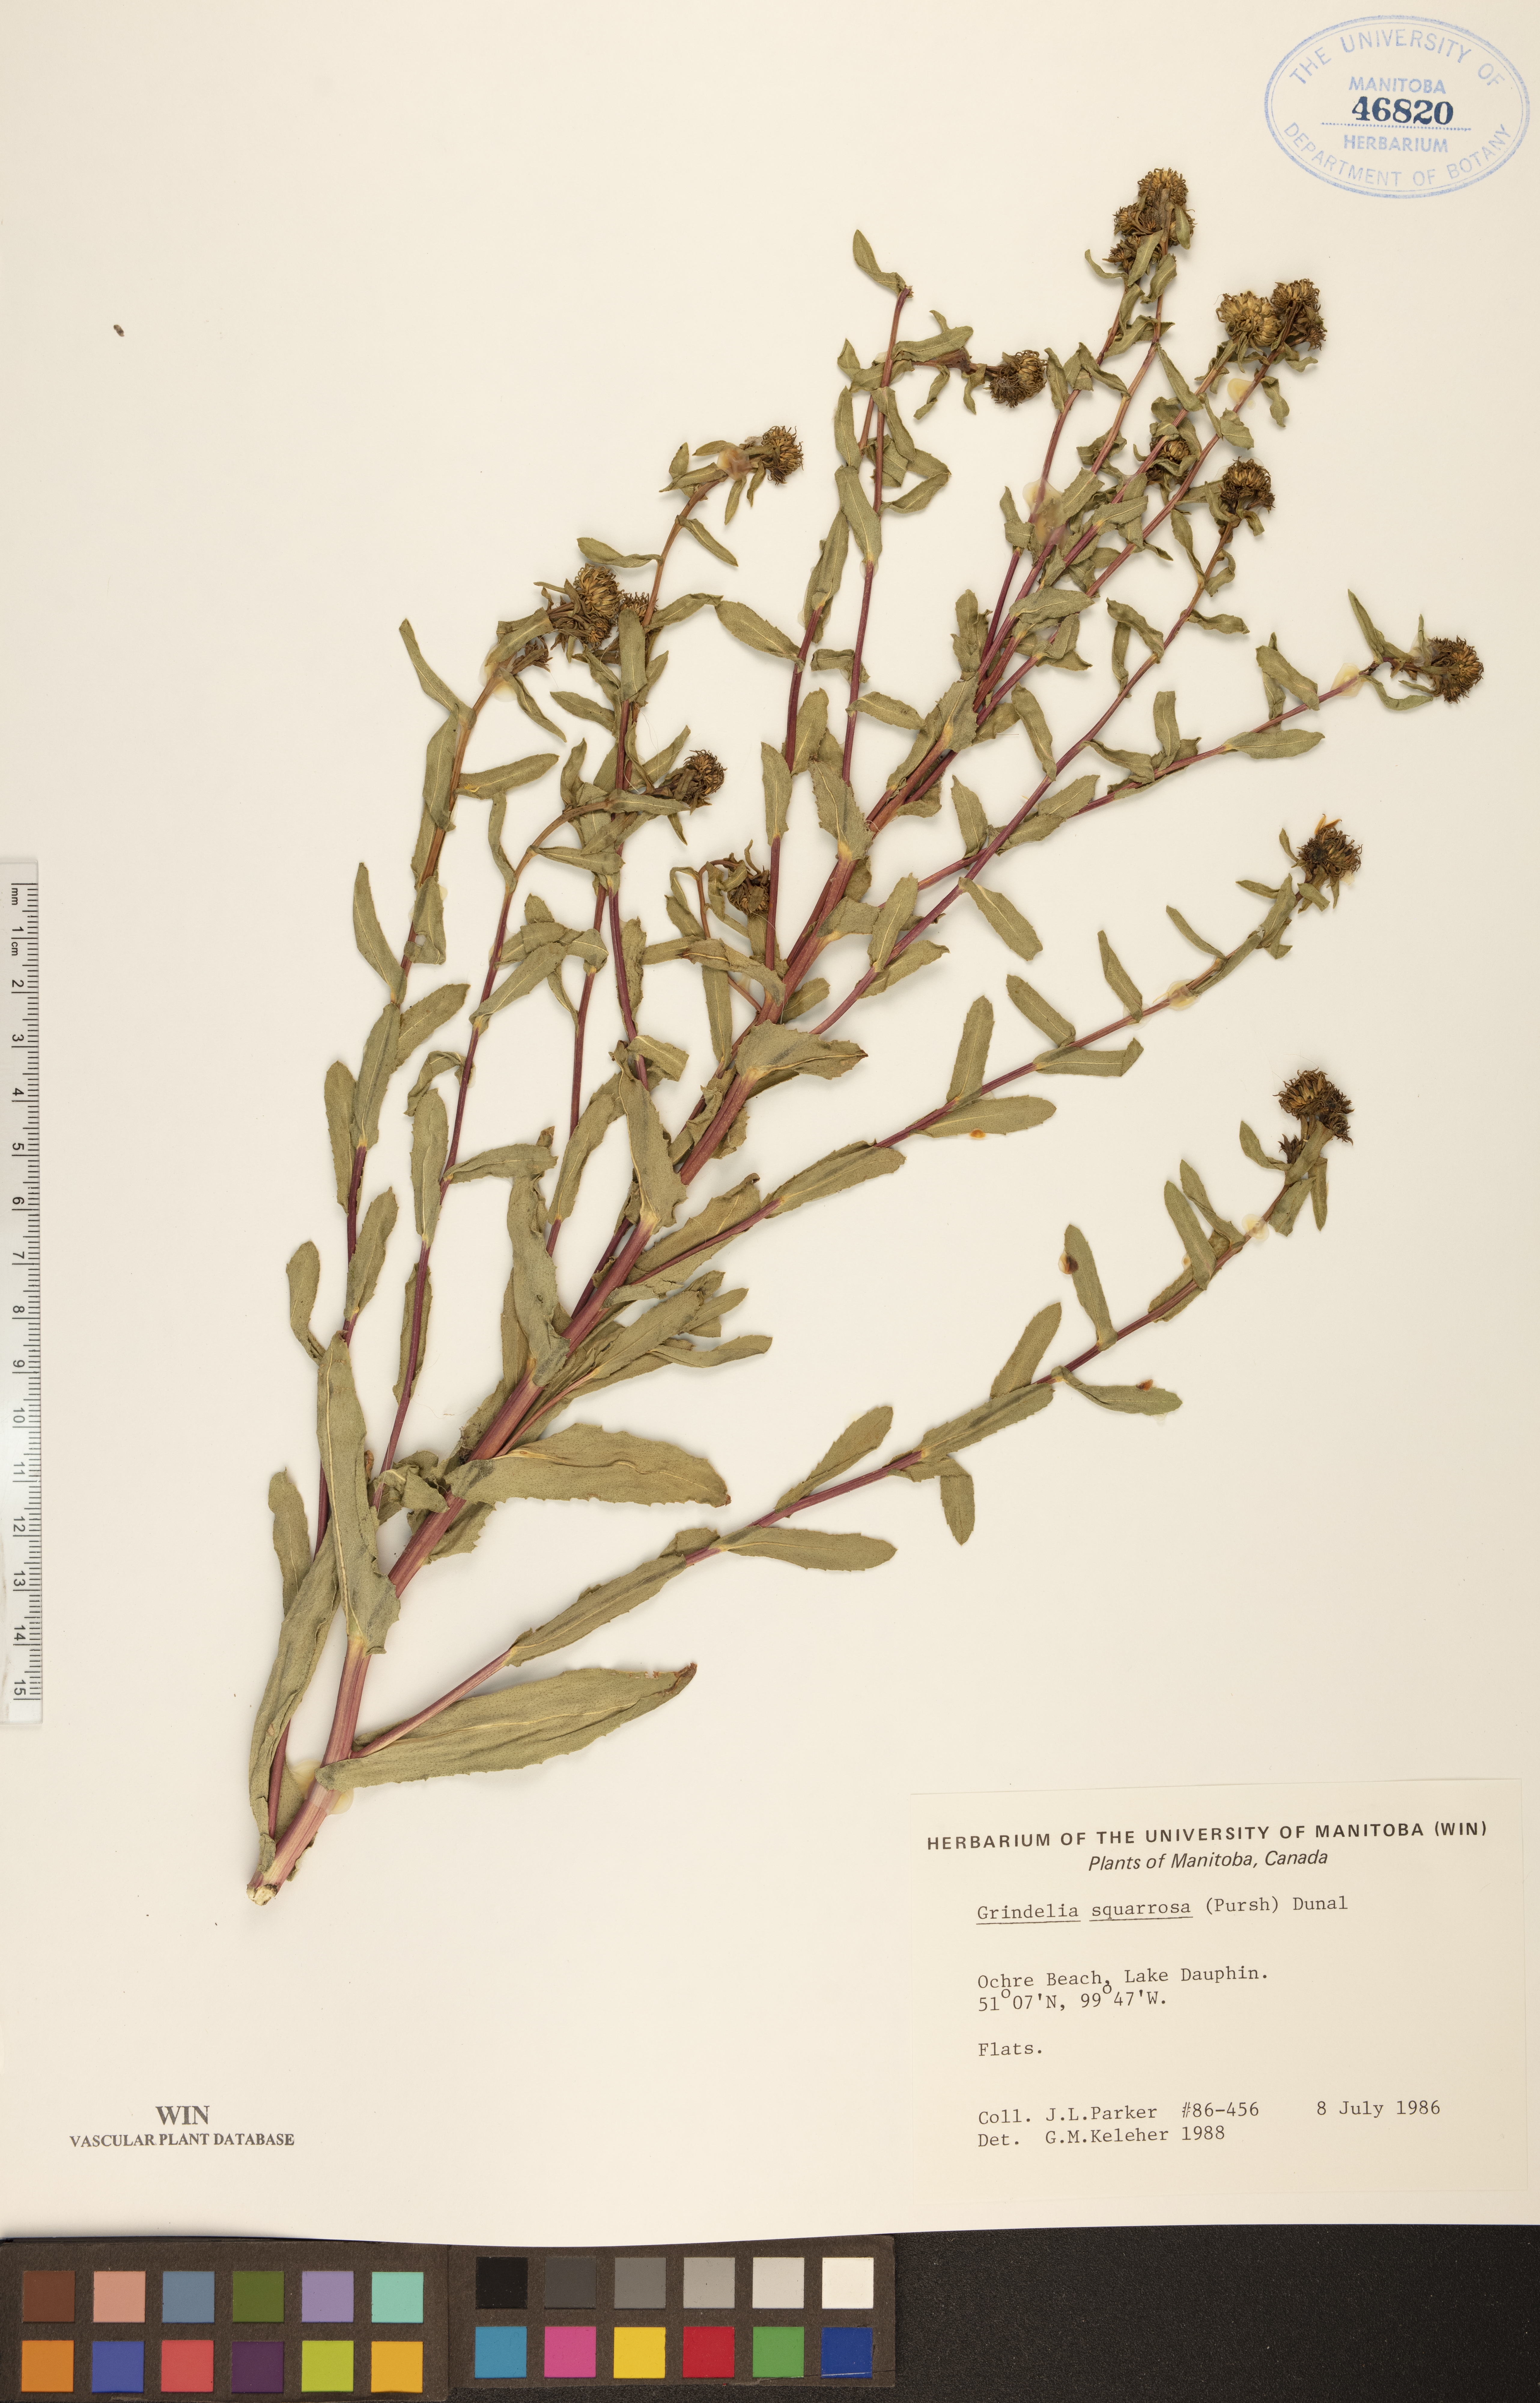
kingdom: Plantae
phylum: Tracheophyta
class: Magnoliopsida
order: Asterales
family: Asteraceae
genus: Grindelia
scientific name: Grindelia squarrosa
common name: Curly-cup gumweed
